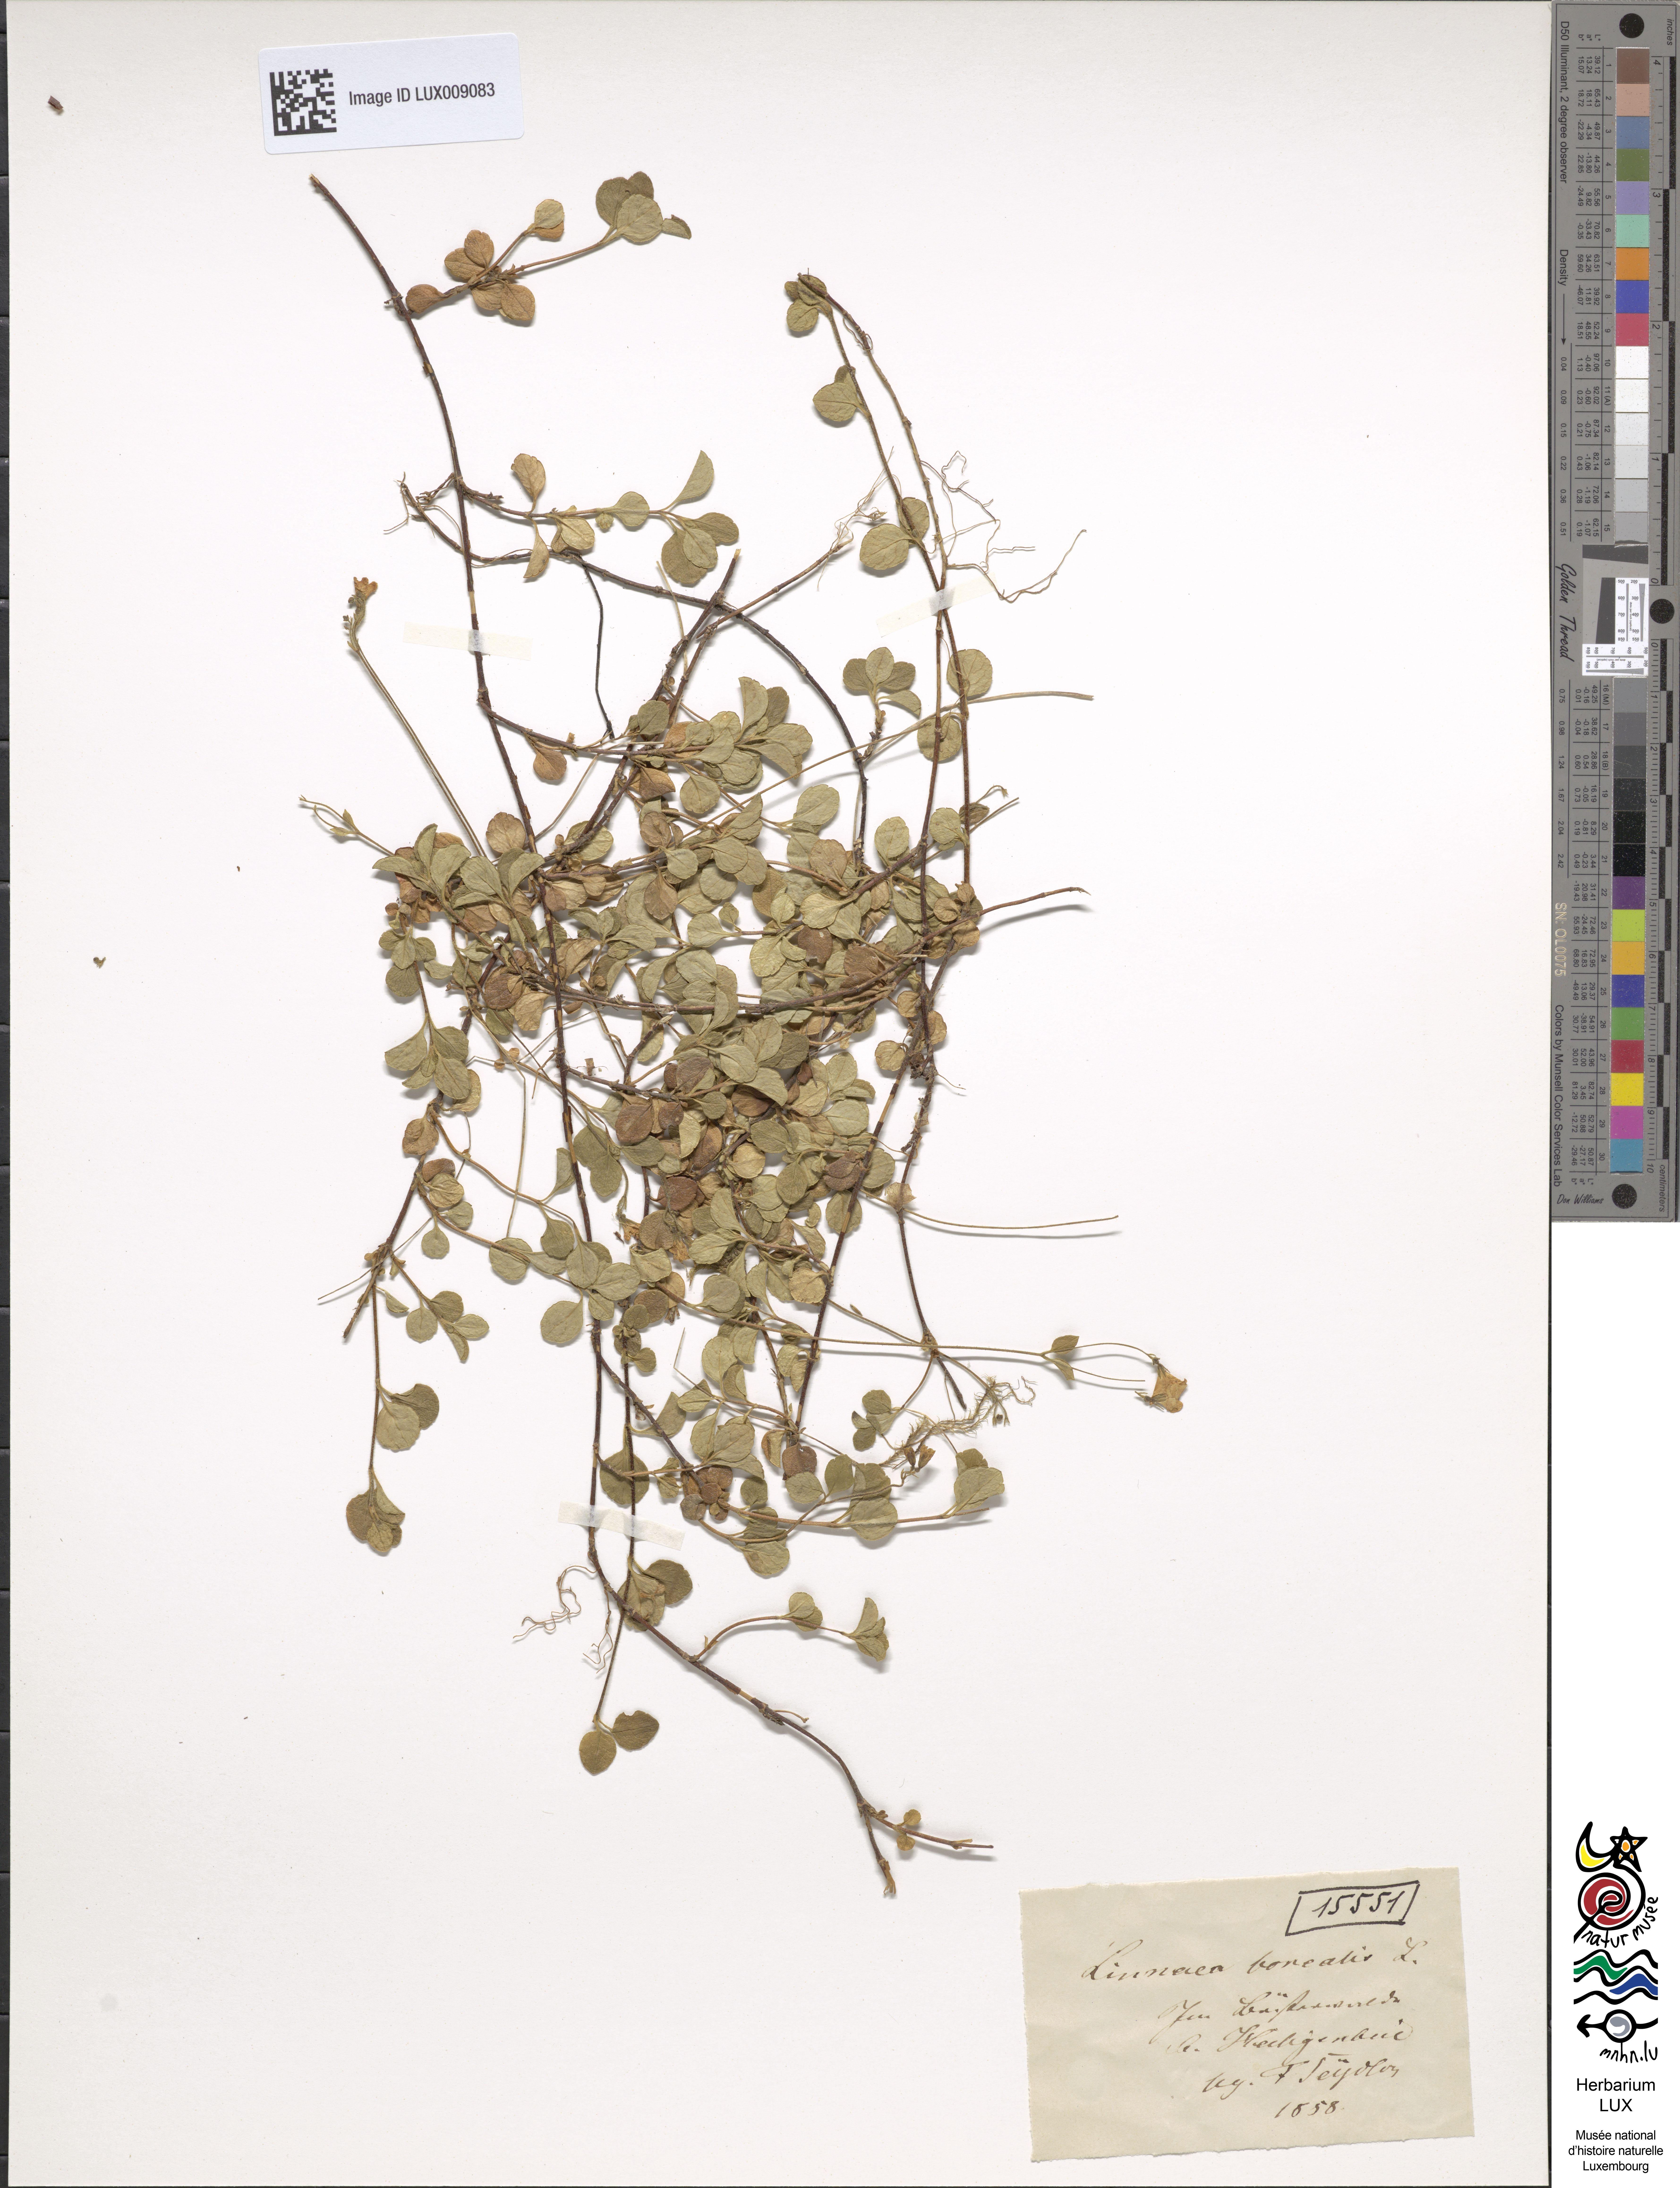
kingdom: Plantae
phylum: Tracheophyta
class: Magnoliopsida
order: Dipsacales
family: Caprifoliaceae
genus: Linnaea
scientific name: Linnaea borealis
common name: Twinflower
